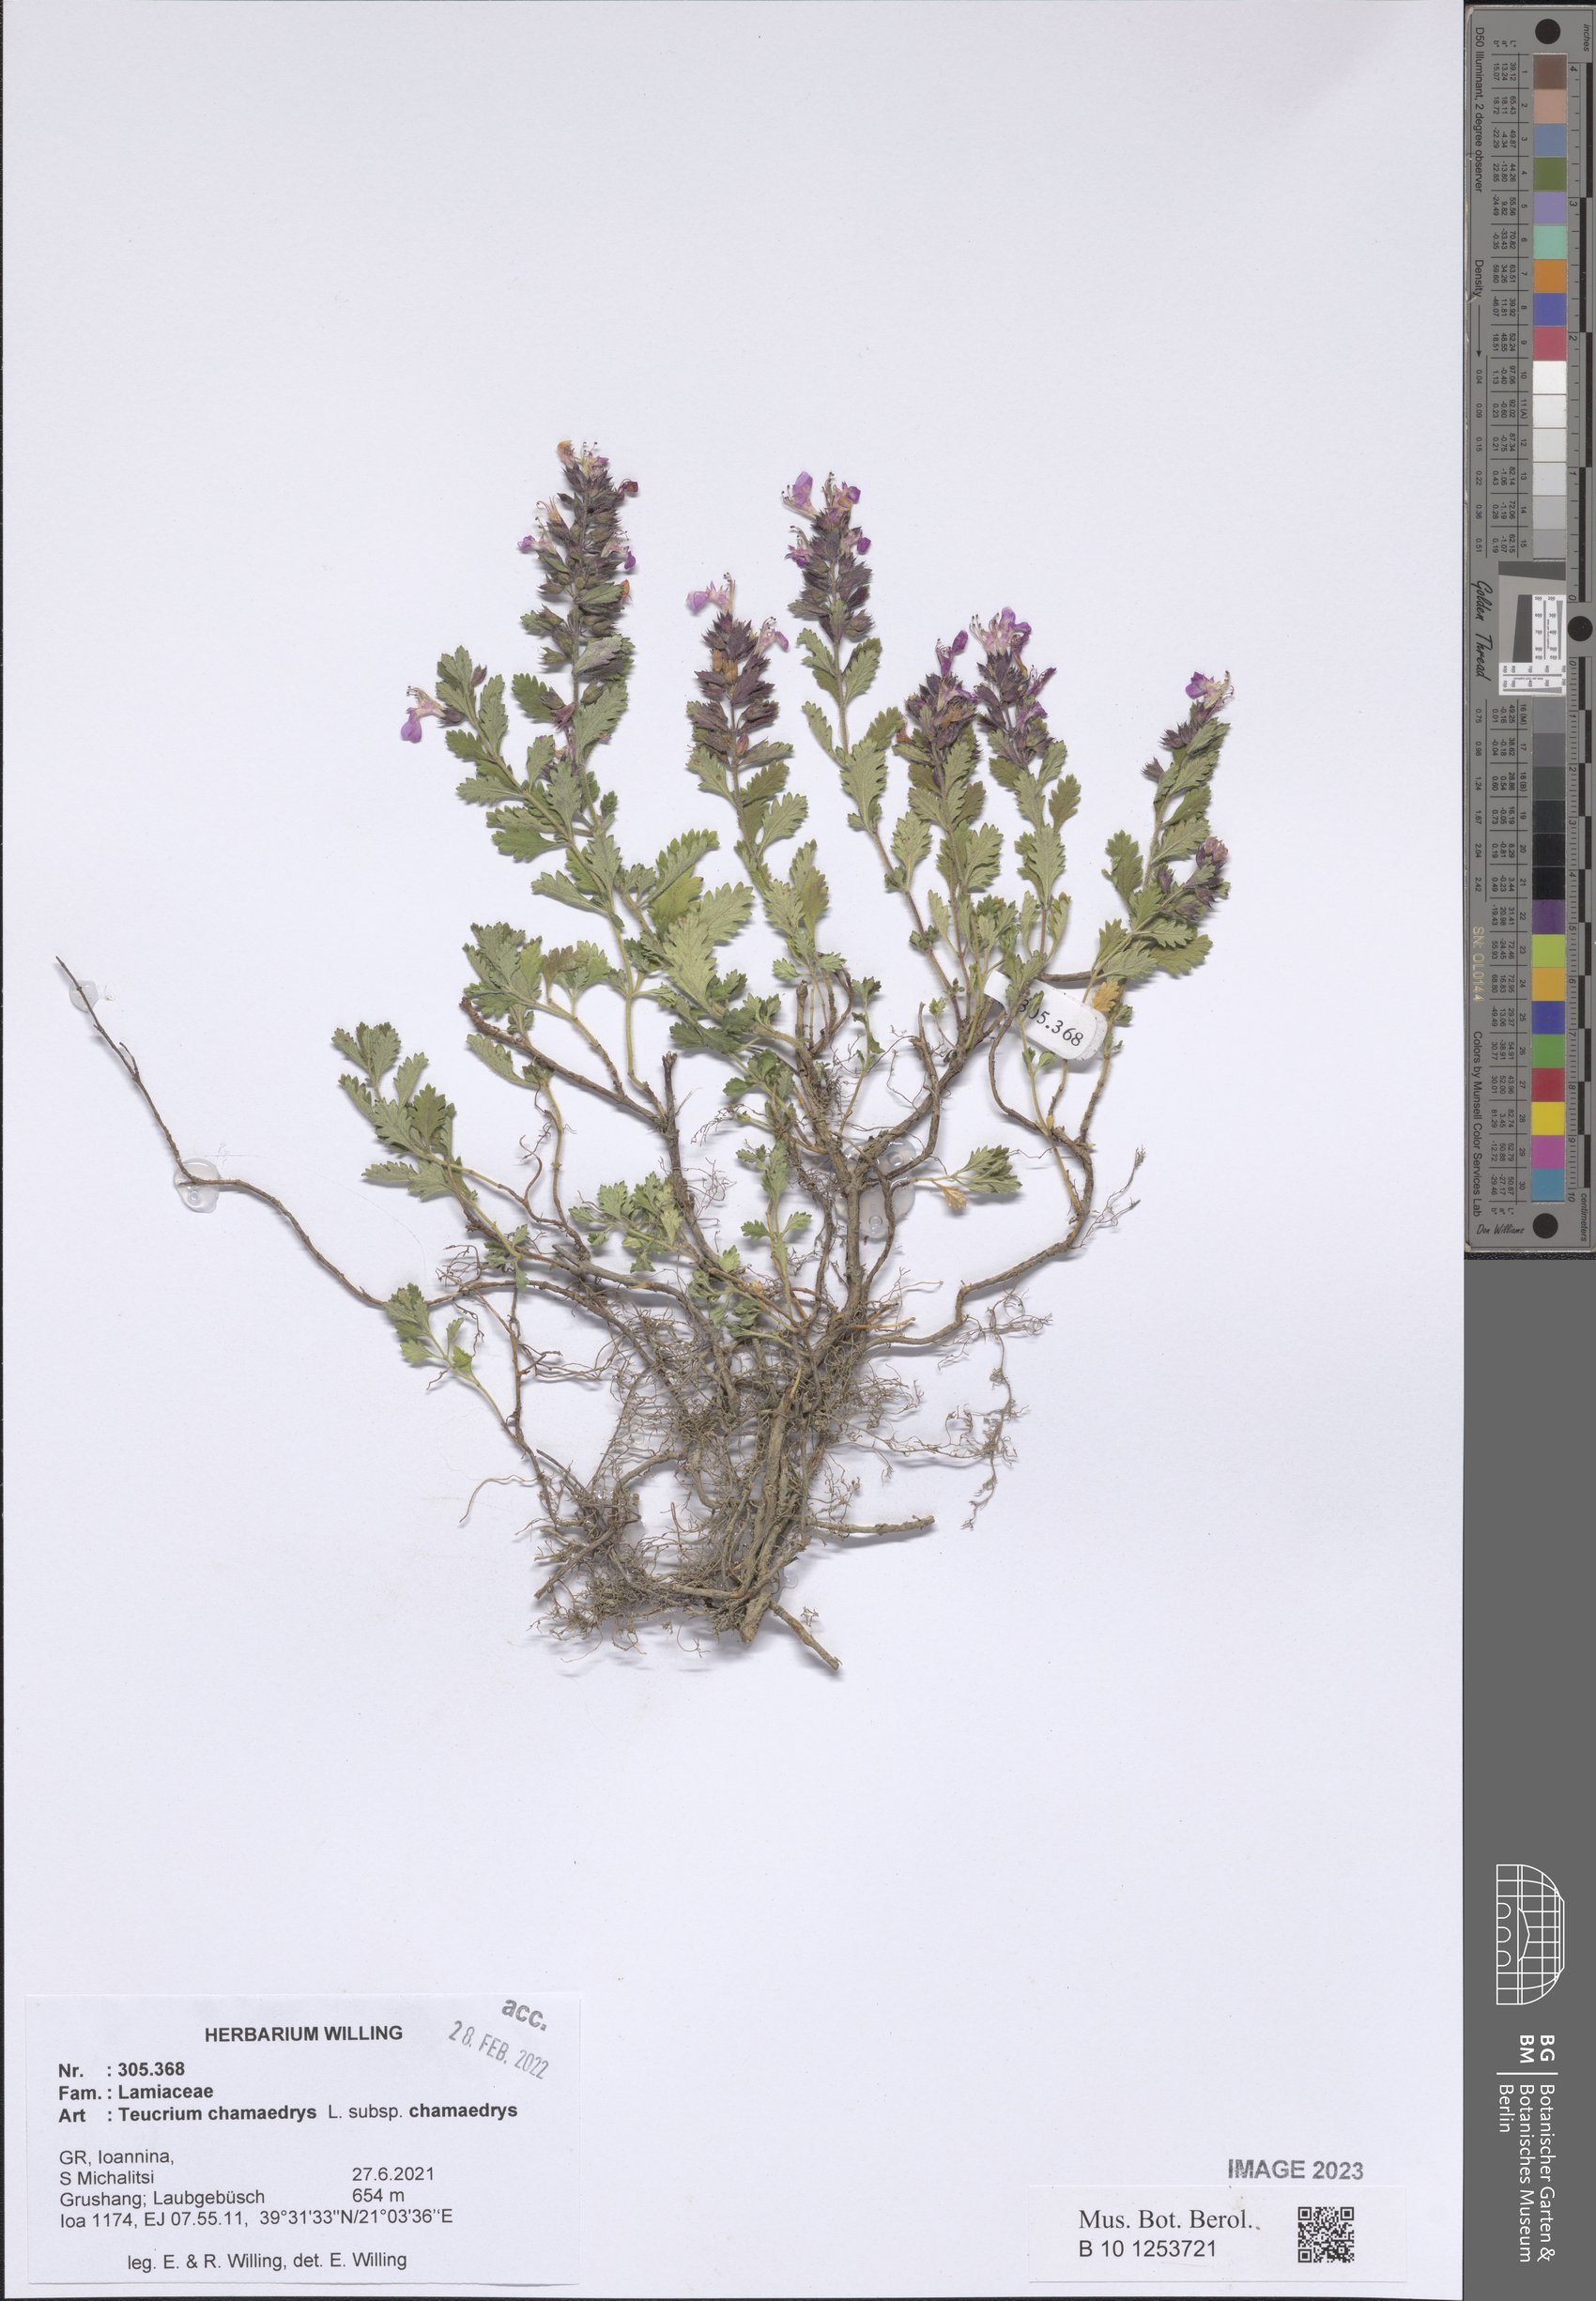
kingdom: Plantae
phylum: Tracheophyta
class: Magnoliopsida
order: Lamiales
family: Lamiaceae
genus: Teucrium
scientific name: Teucrium chamaedrys
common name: Wall germander
